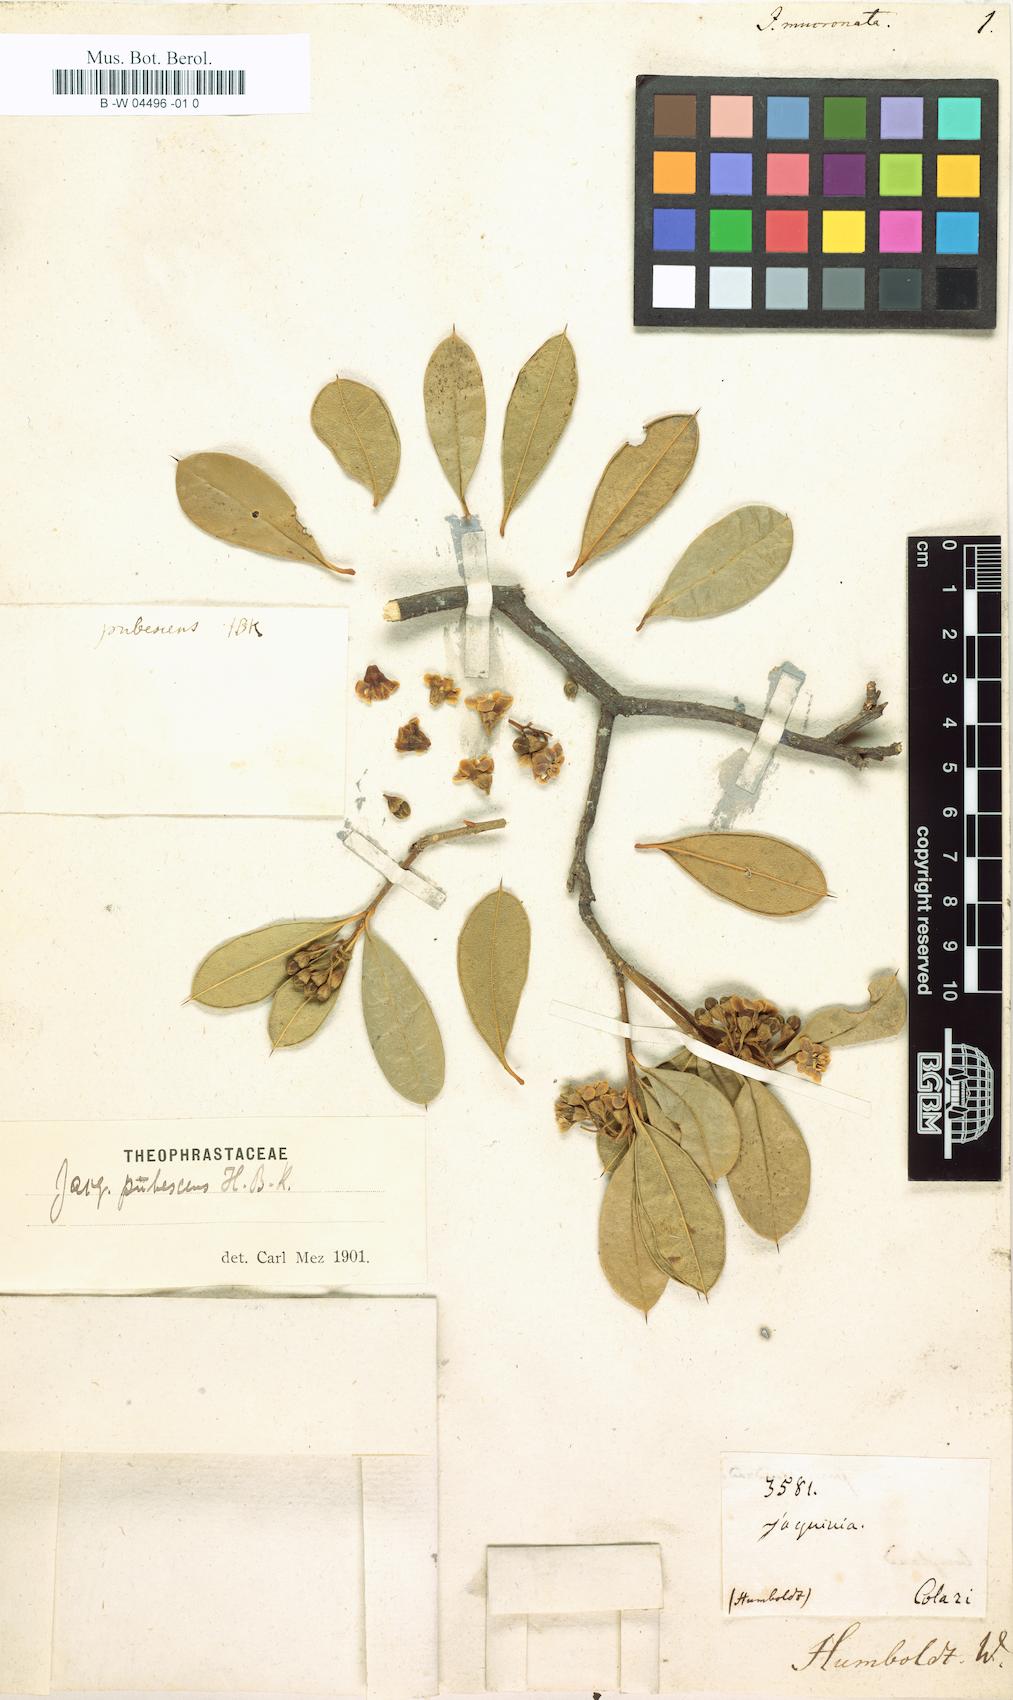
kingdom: Plantae
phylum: Tracheophyta
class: Magnoliopsida
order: Ericales
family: Primulaceae
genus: Bonellia
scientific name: Bonellia mucronata
